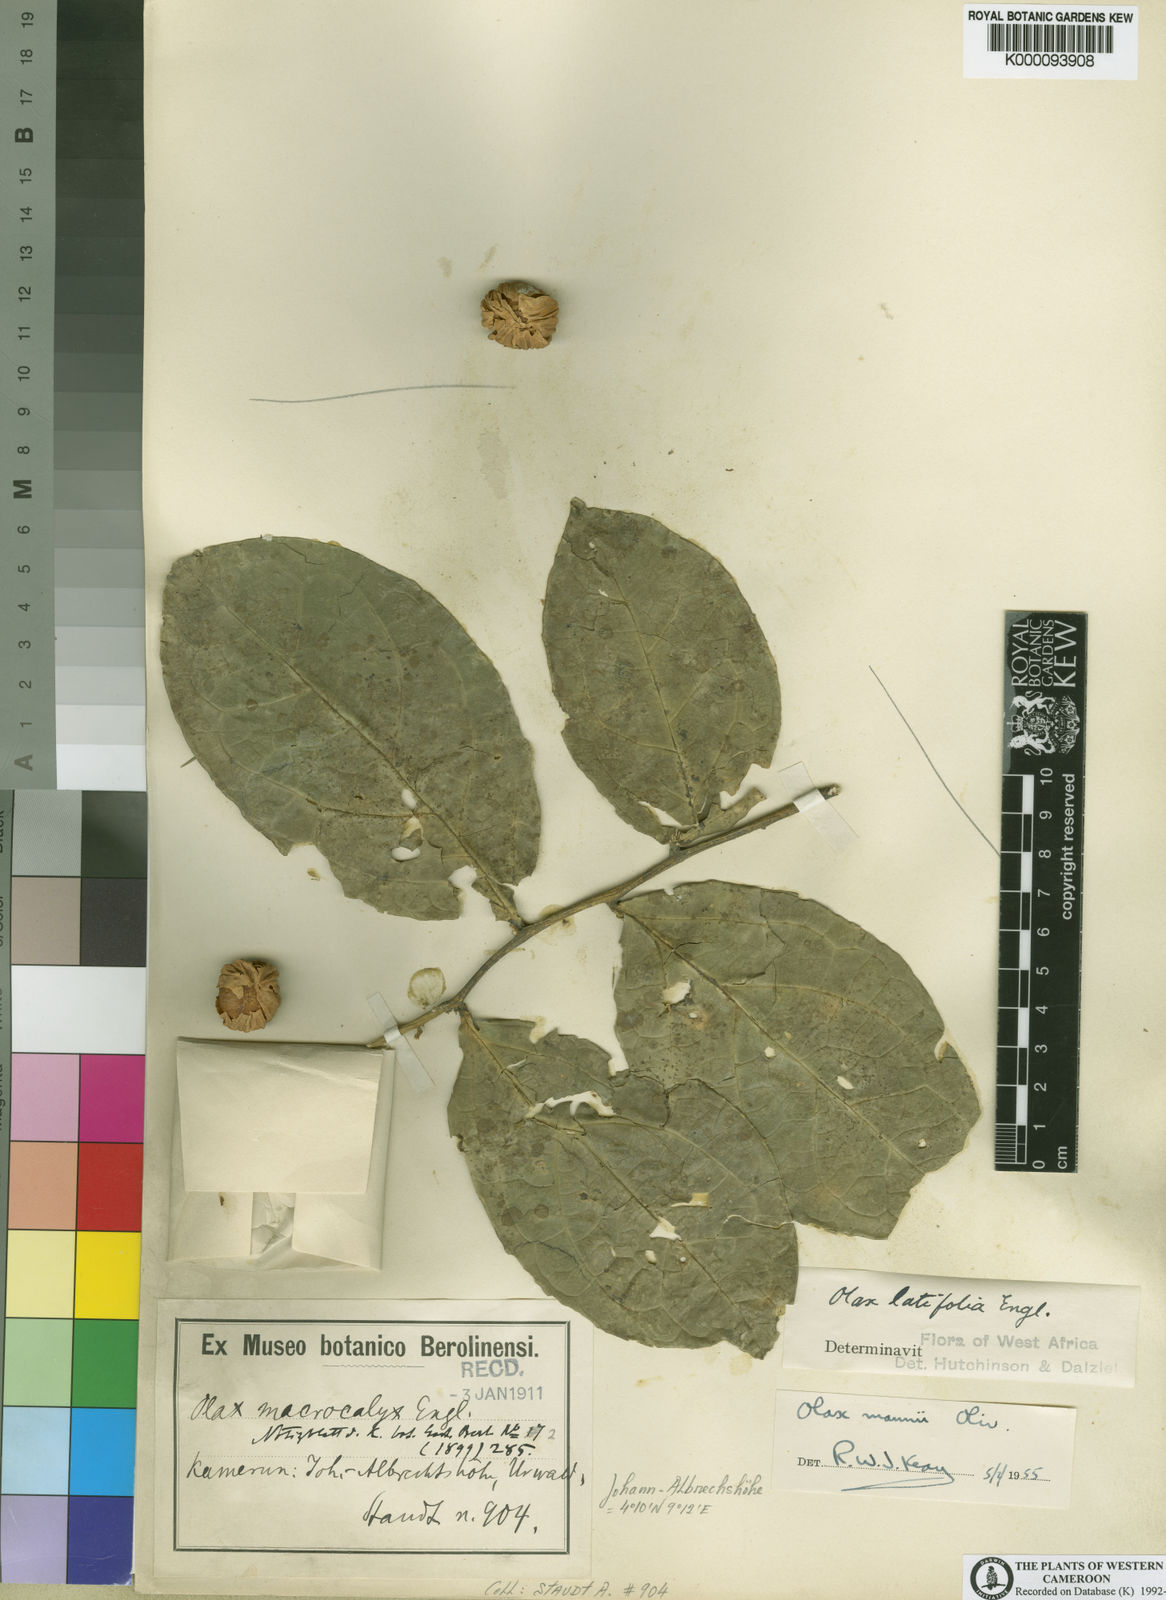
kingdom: Plantae
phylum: Tracheophyta
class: Magnoliopsida
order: Santalales
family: Olacaceae
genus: Olax
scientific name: Olax mannii
